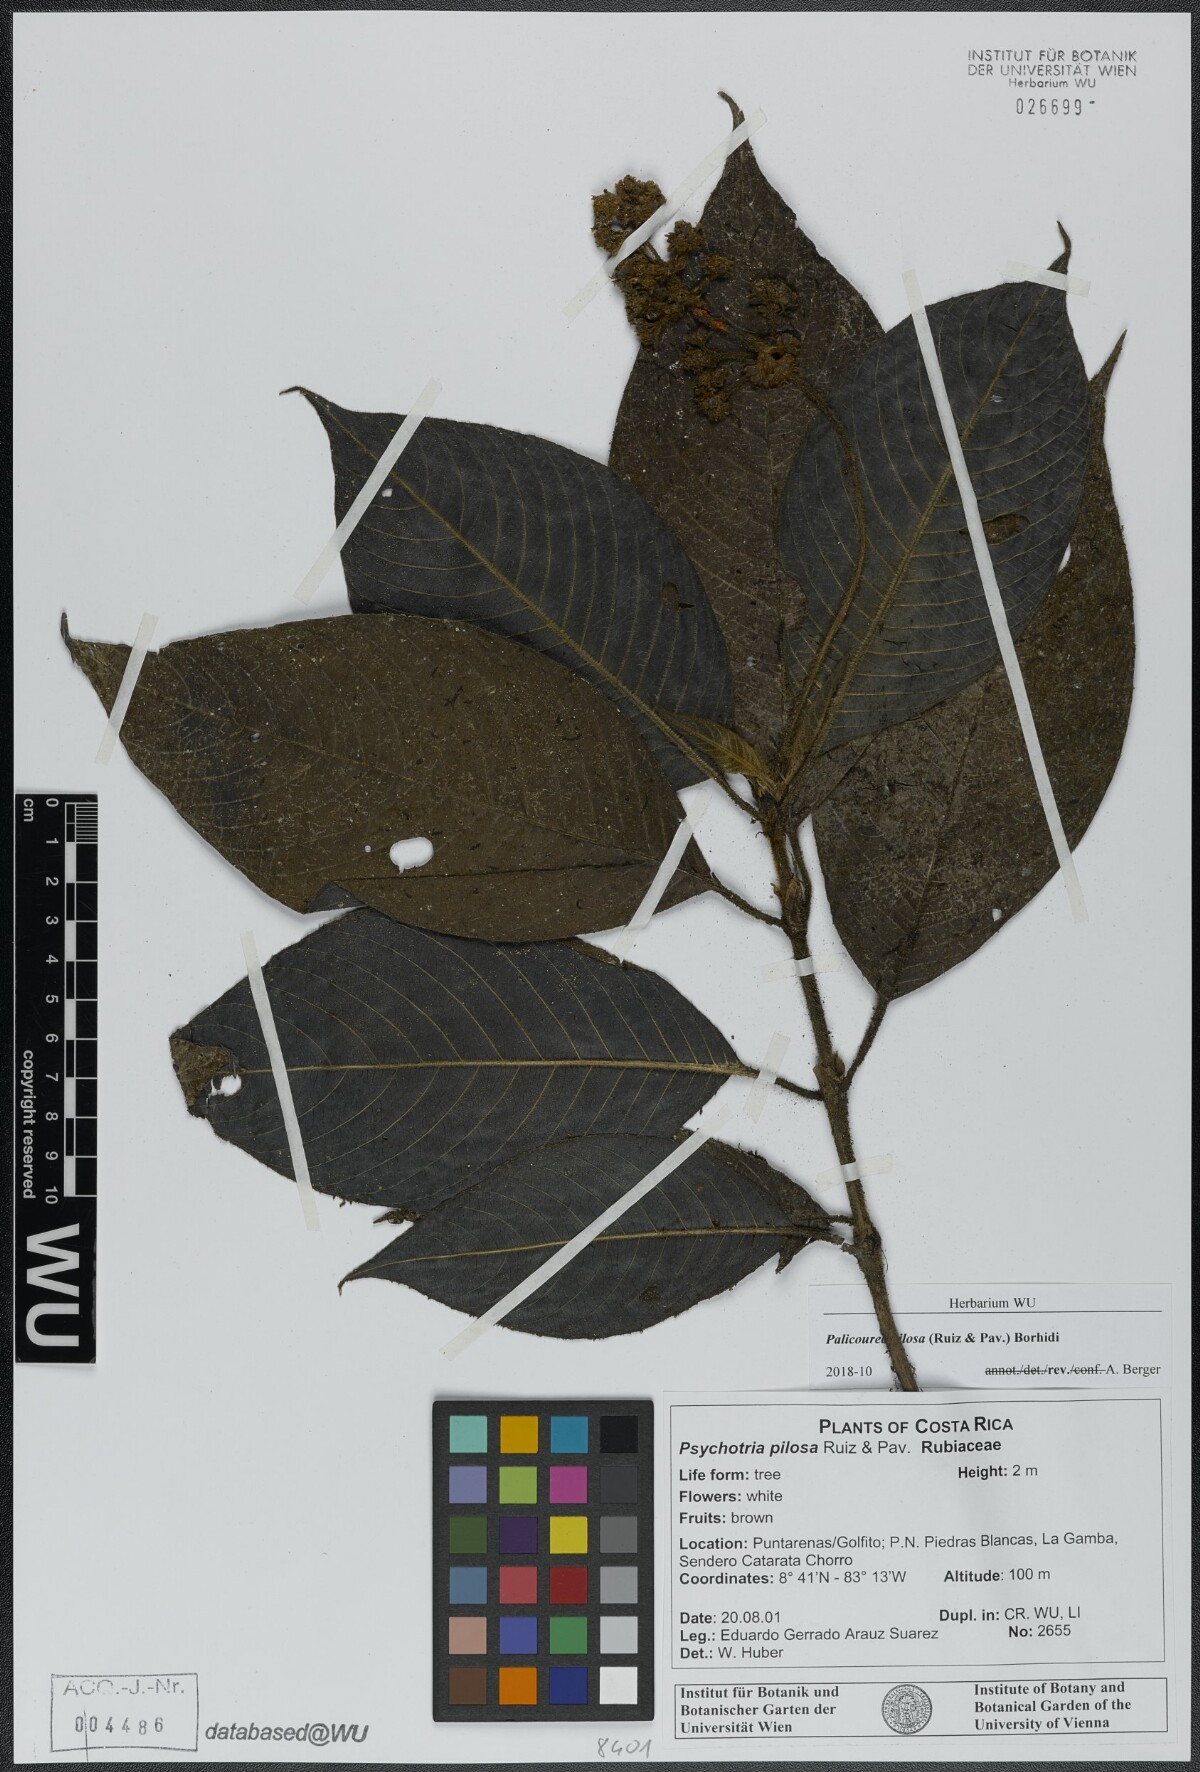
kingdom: Plantae
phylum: Tracheophyta
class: Magnoliopsida
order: Gentianales
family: Rubiaceae
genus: Palicourea
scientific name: Palicourea pilosa
